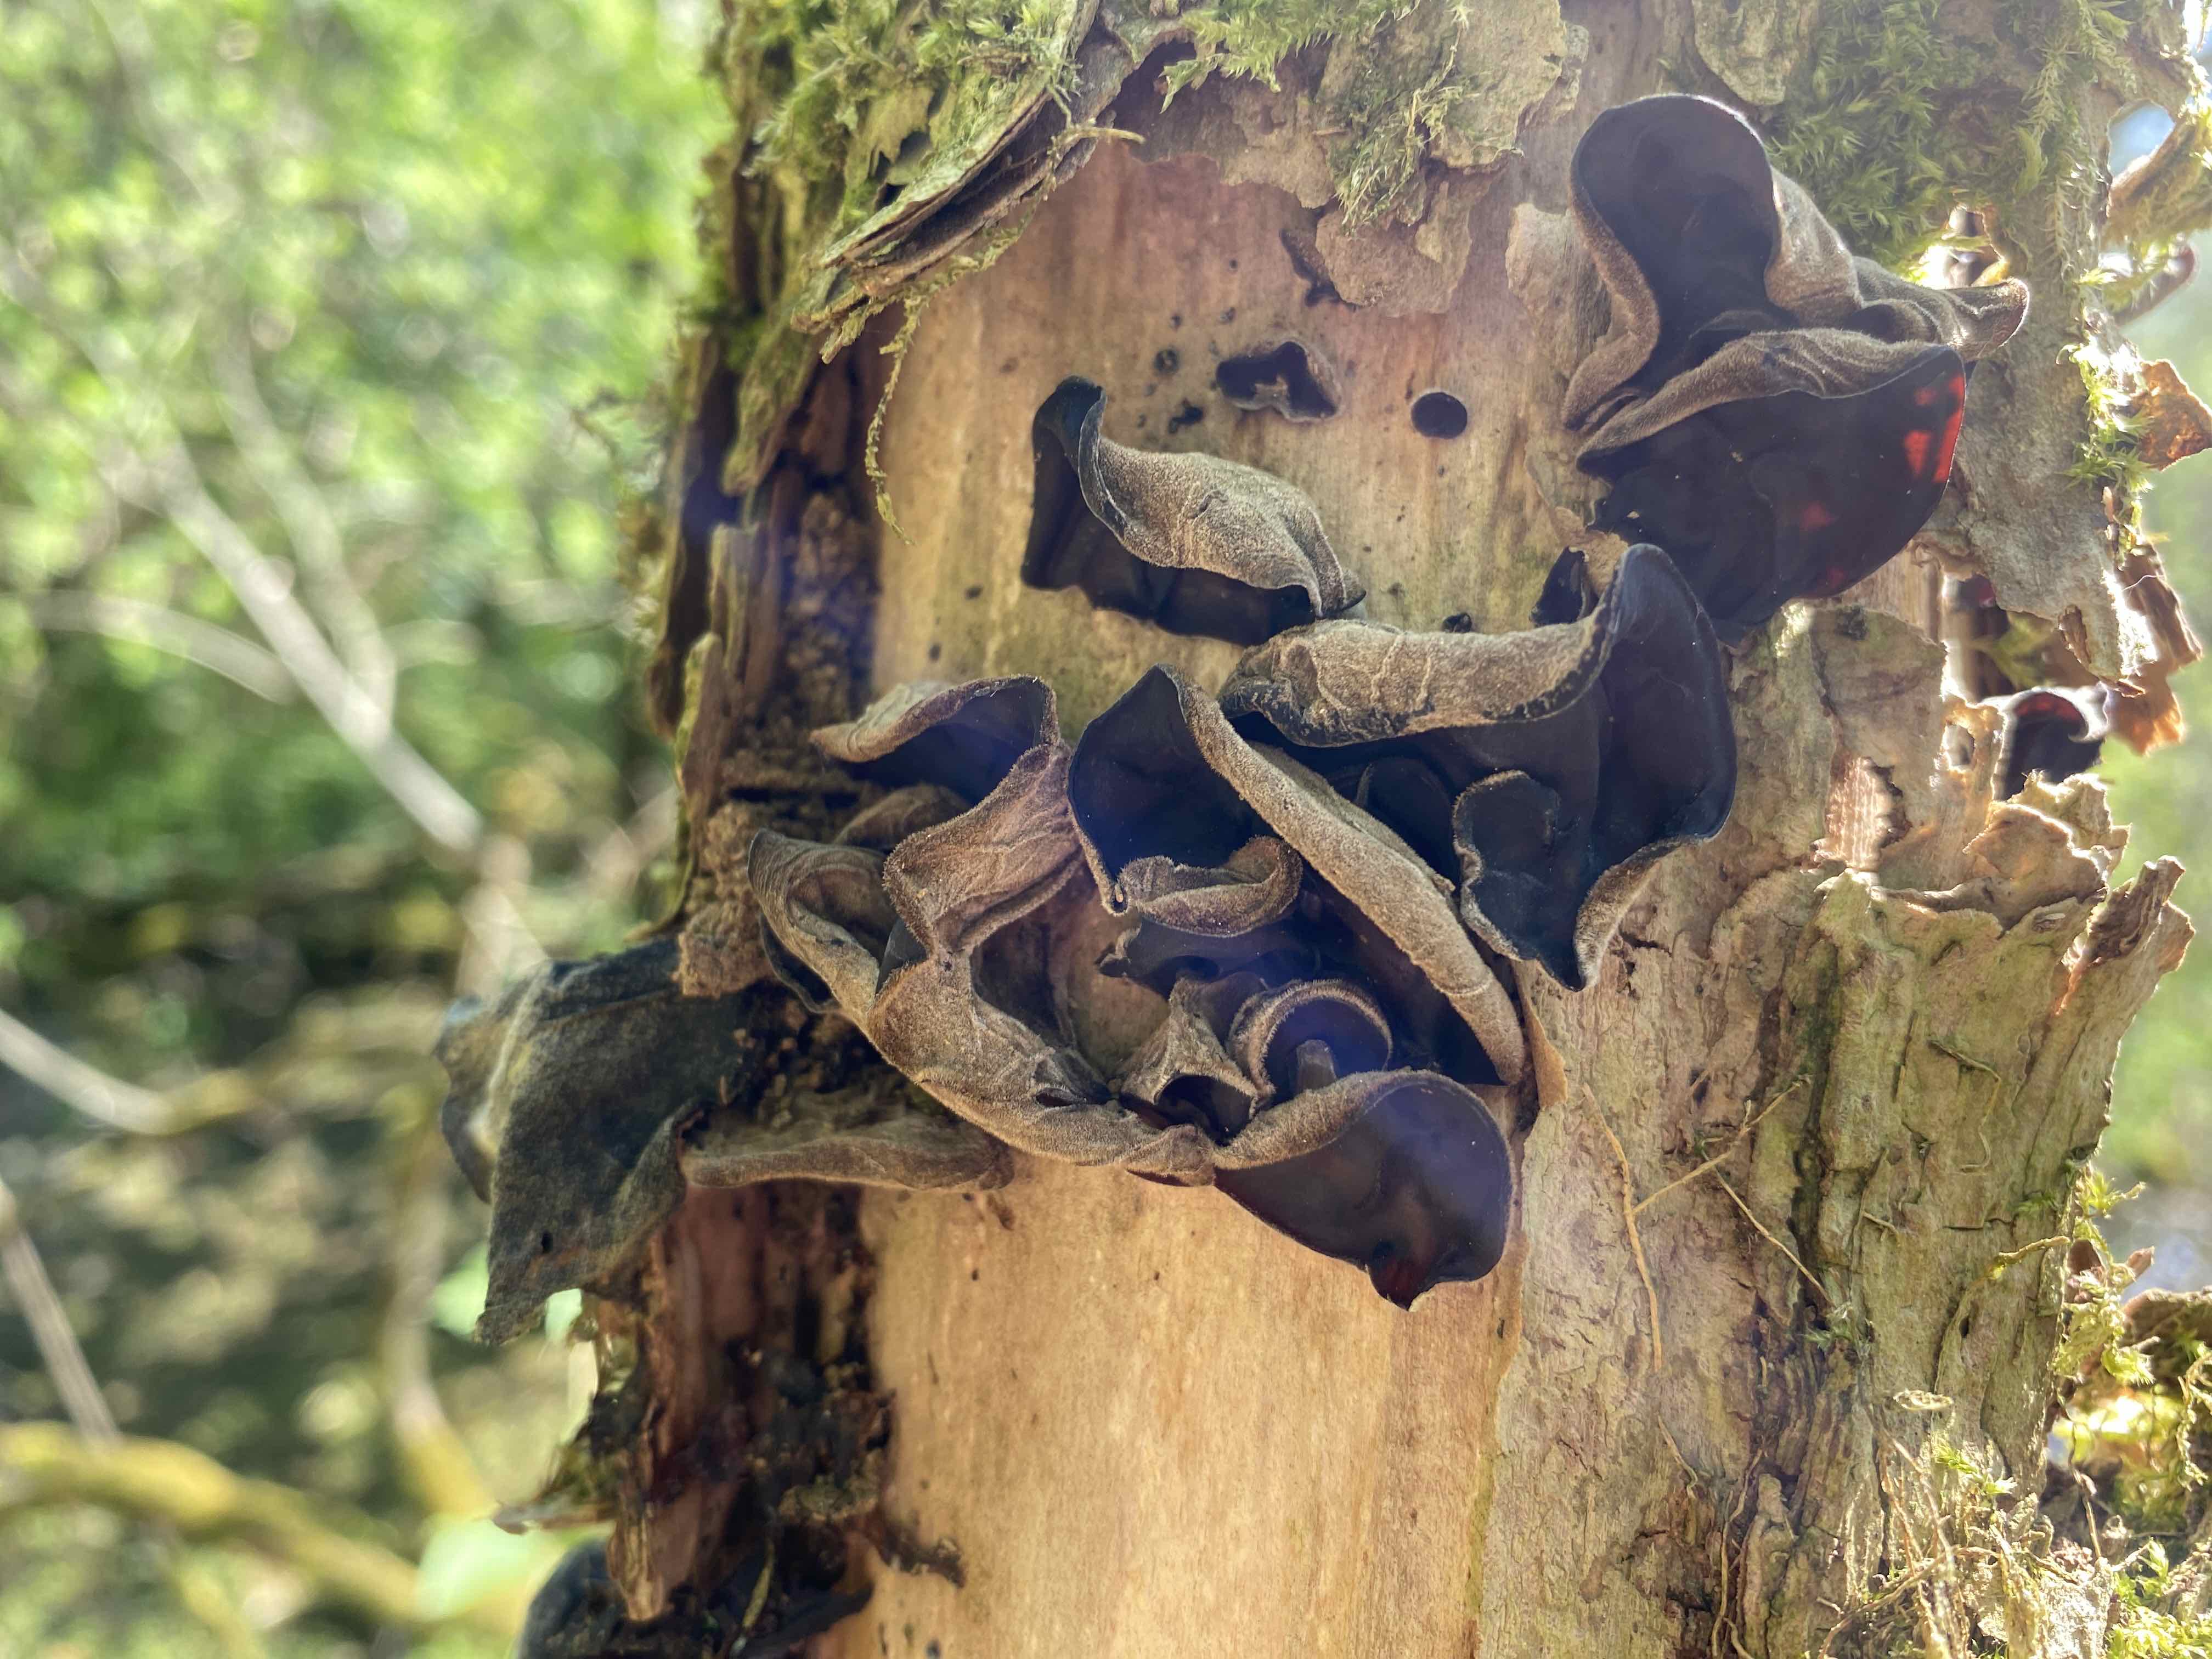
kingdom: Fungi
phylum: Basidiomycota
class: Agaricomycetes
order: Auriculariales
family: Auriculariaceae
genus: Auricularia
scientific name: Auricularia auricula-judae
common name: almindelig judasøre
